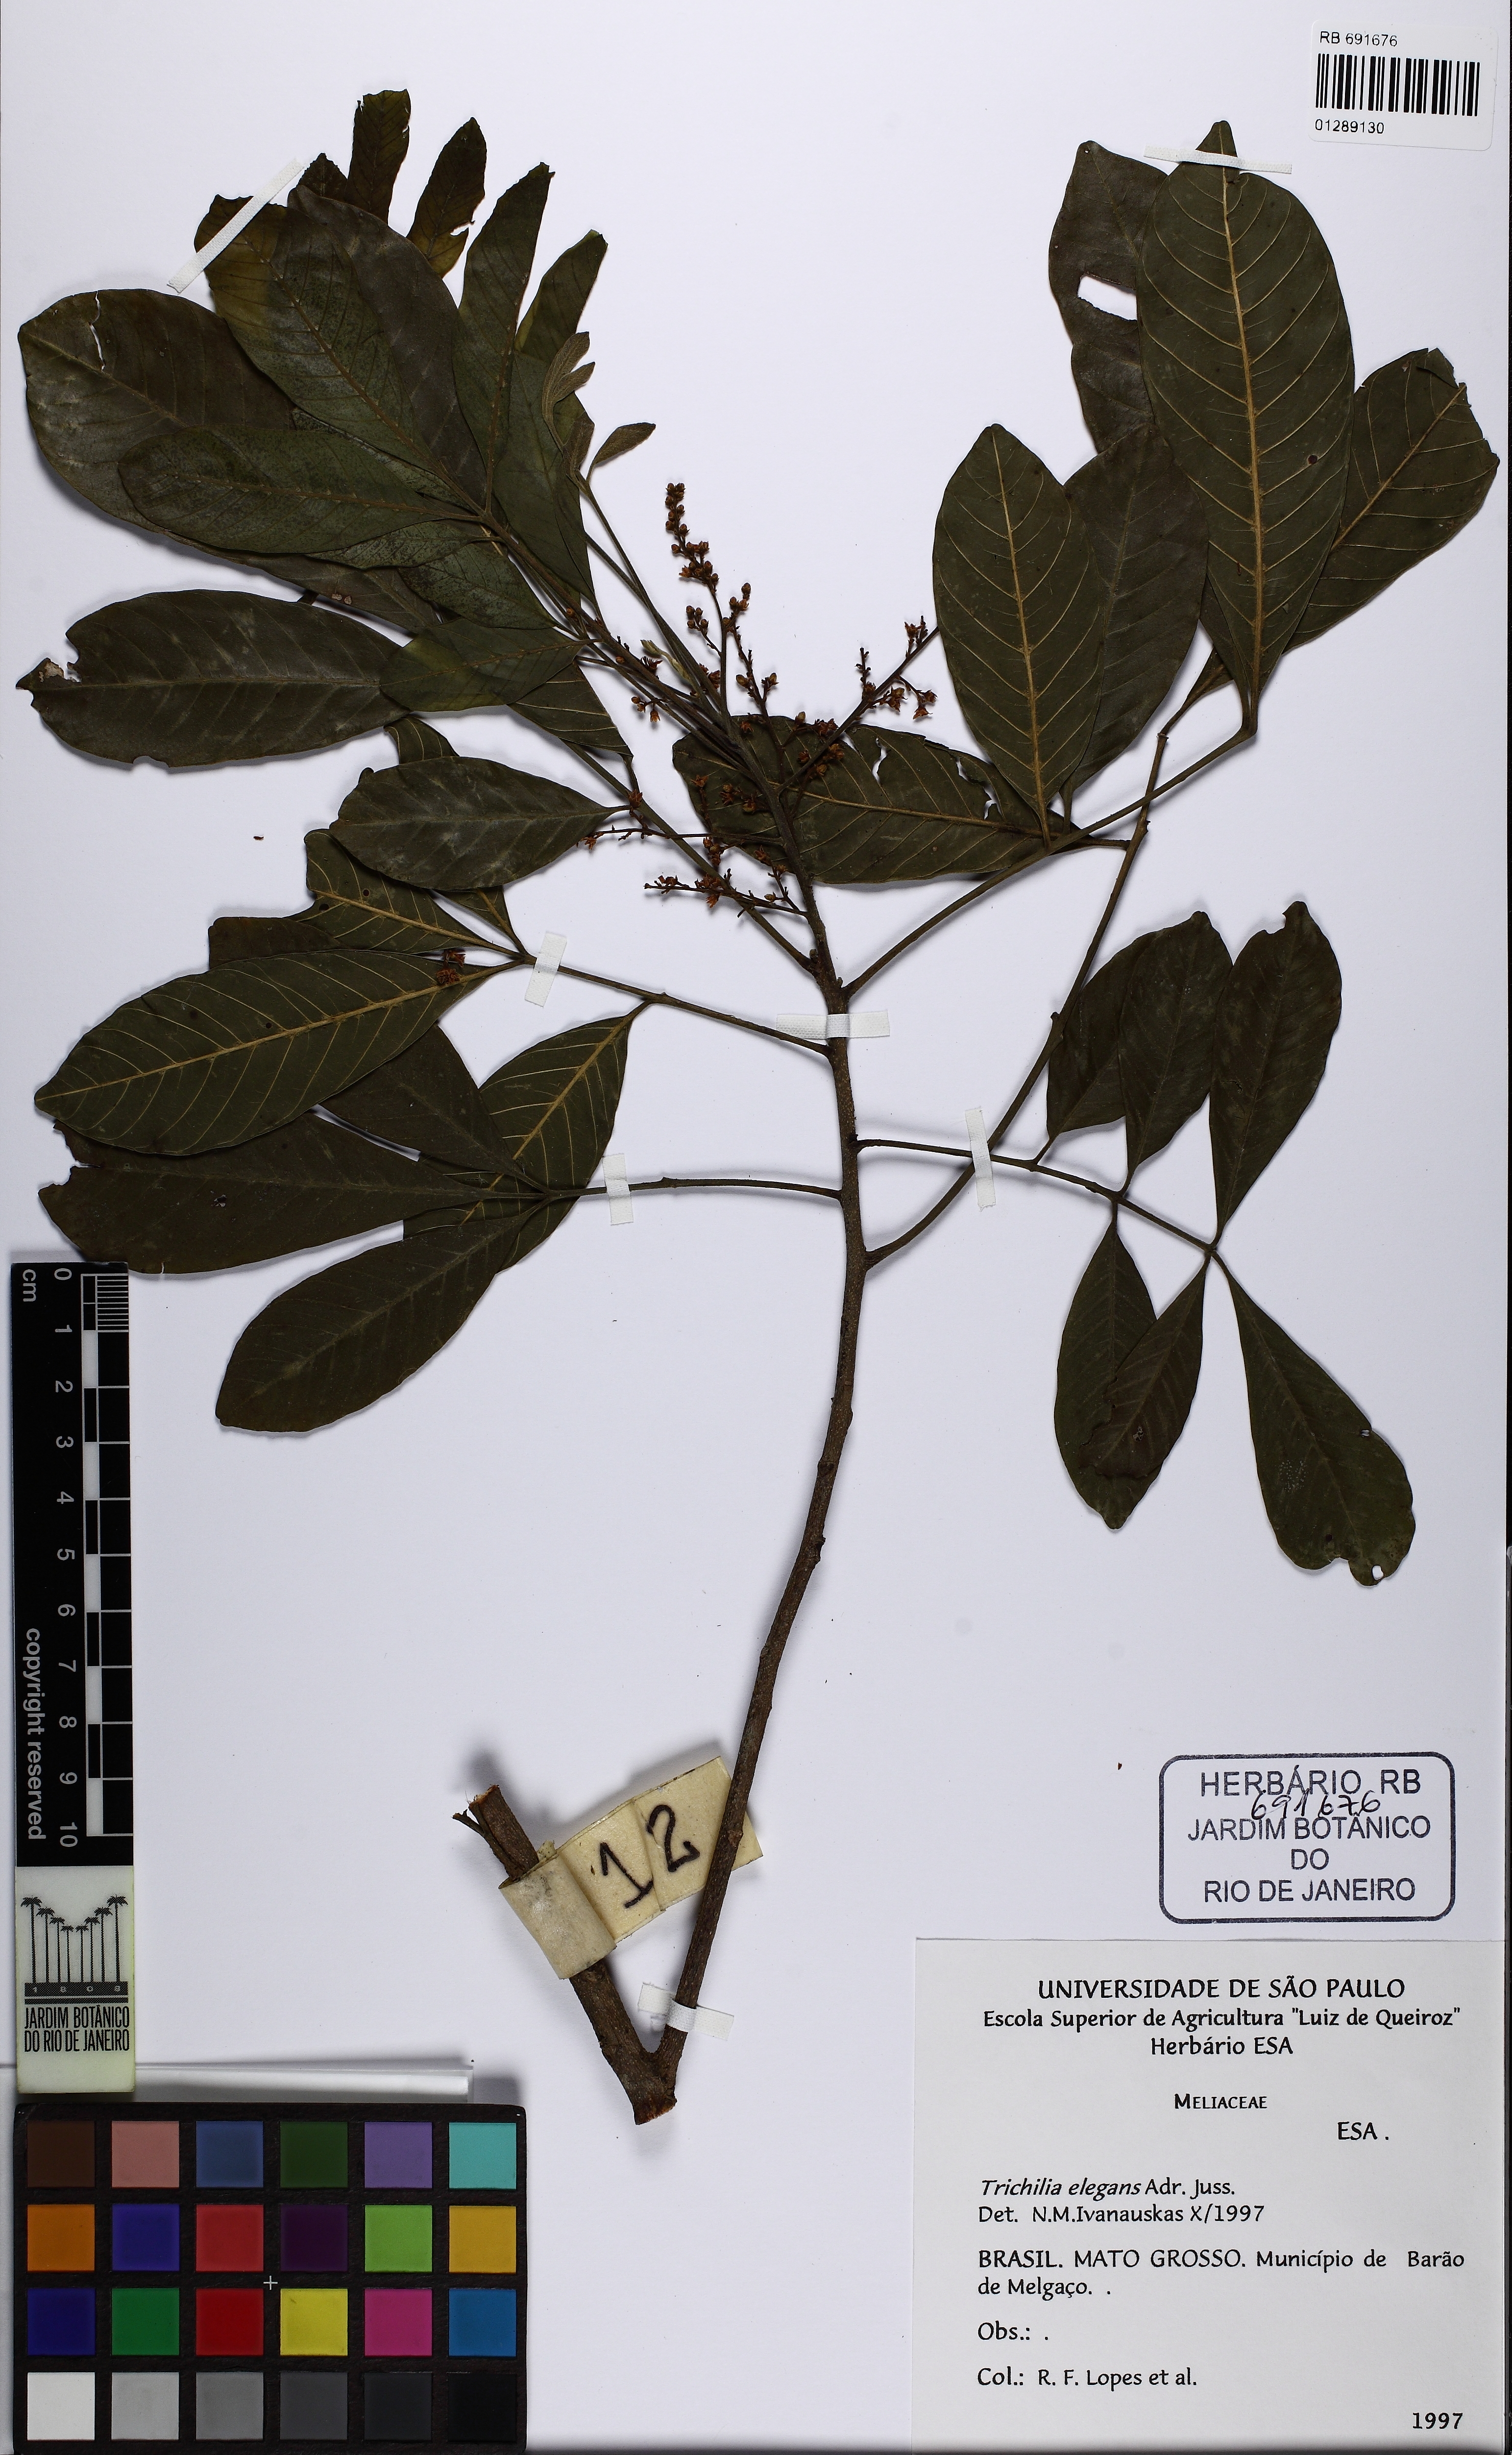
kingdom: Plantae
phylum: Tracheophyta
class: Magnoliopsida
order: Sapindales
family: Meliaceae
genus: Trichilia
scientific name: Trichilia elegans
